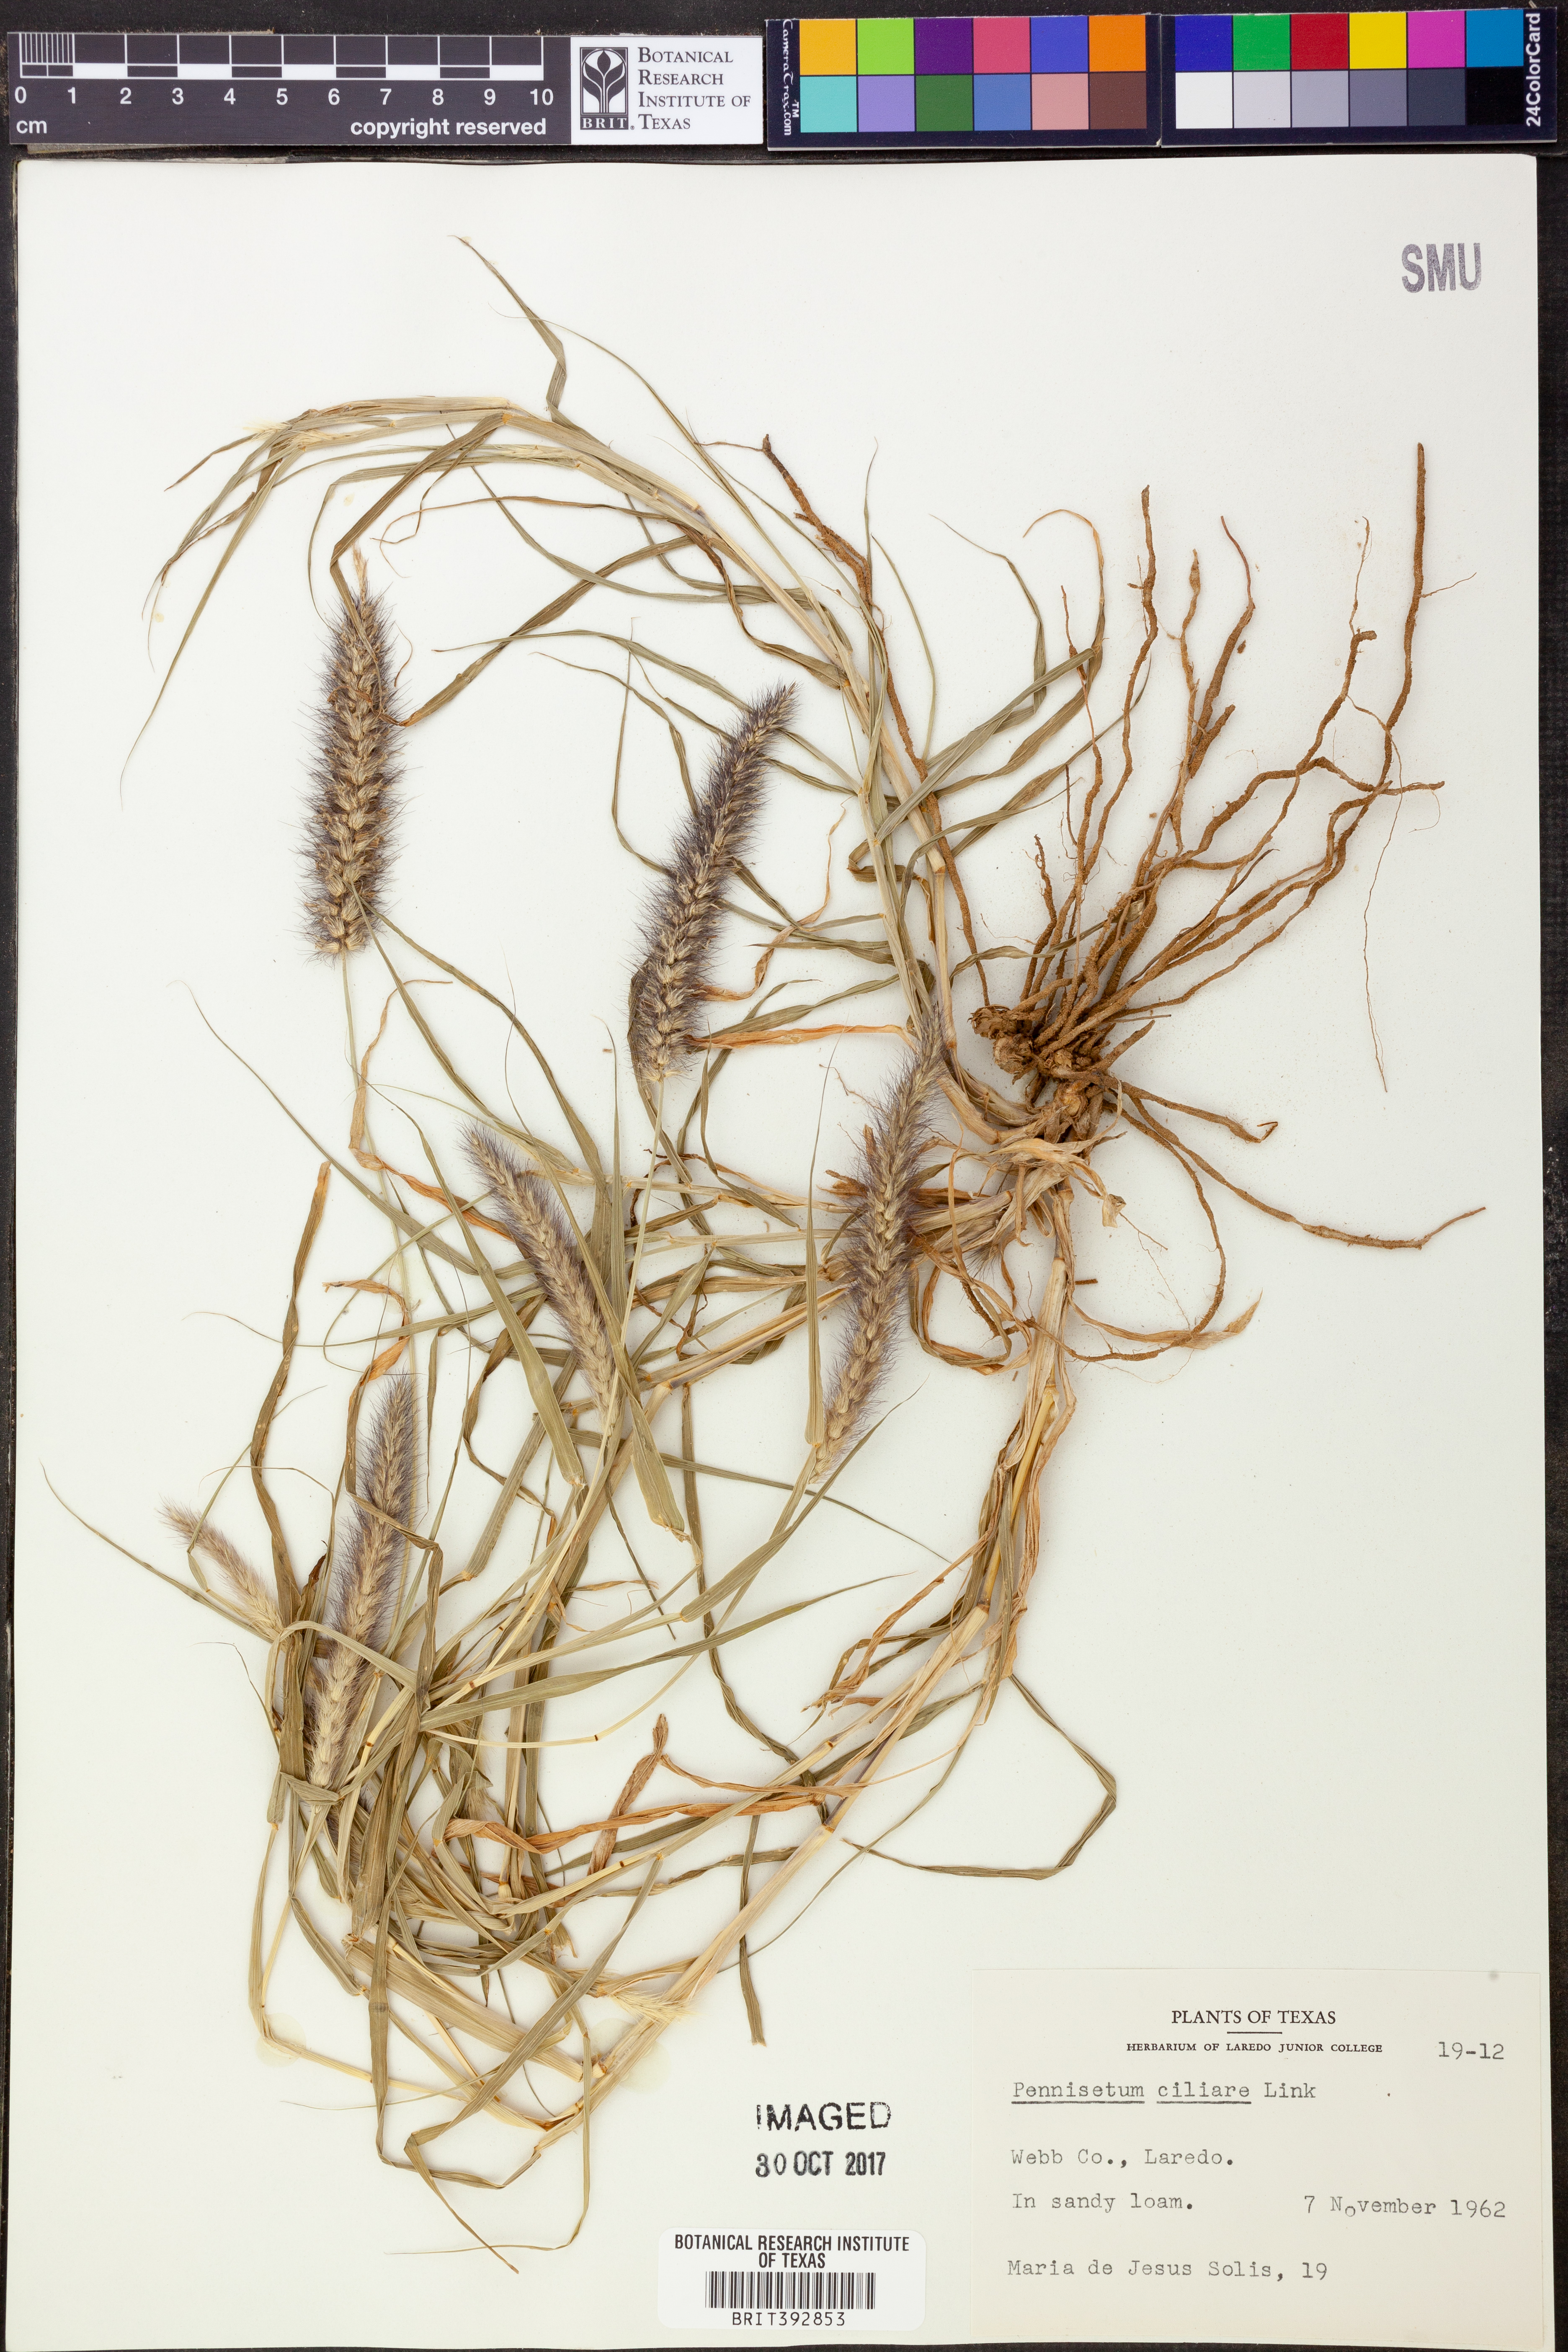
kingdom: Plantae
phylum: Tracheophyta
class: Liliopsida
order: Poales
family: Poaceae
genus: Cenchrus
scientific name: Cenchrus ciliaris
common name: Buffelgrass
